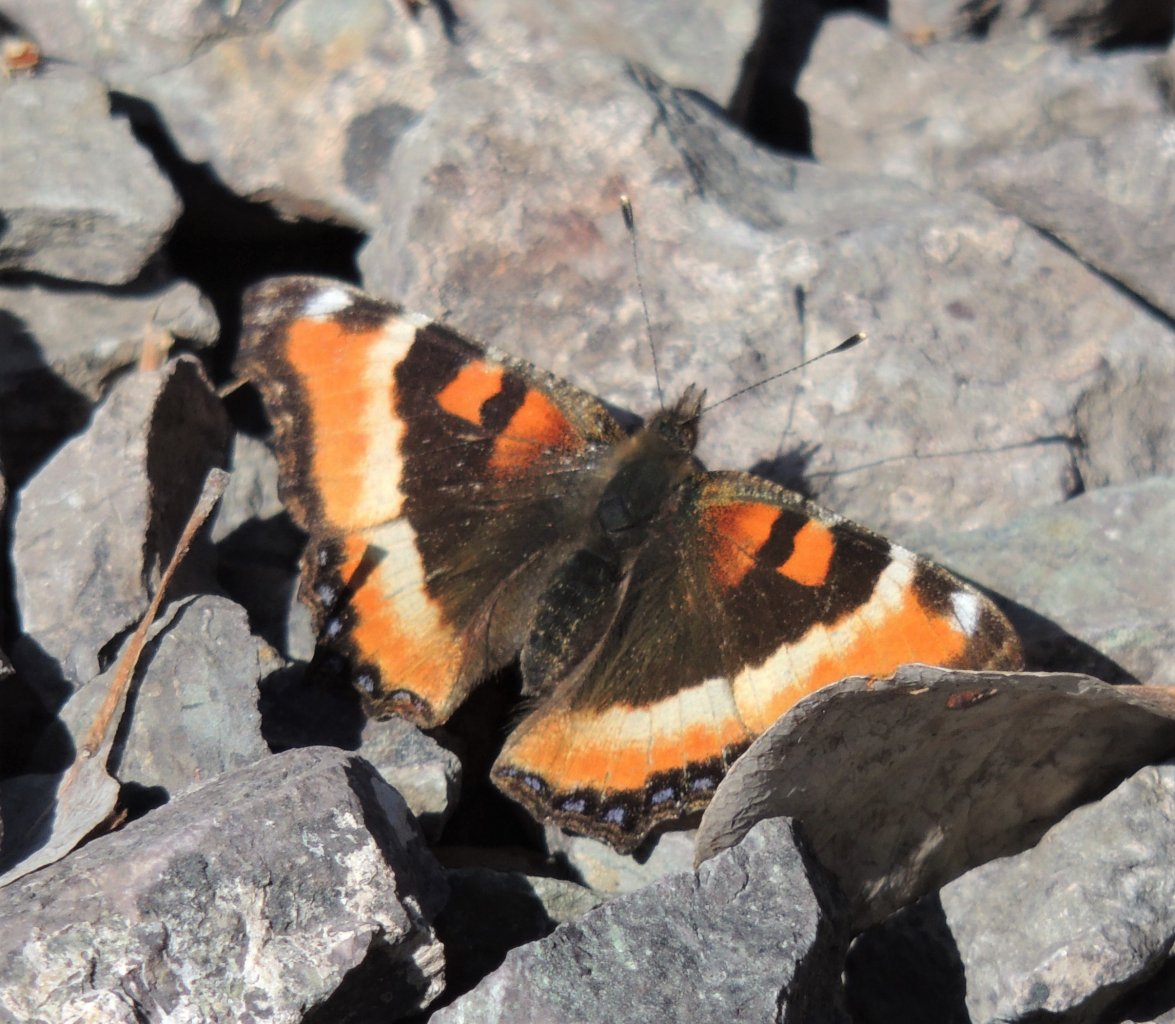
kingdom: Animalia
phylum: Arthropoda
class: Insecta
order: Lepidoptera
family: Nymphalidae
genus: Aglais
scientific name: Aglais milberti
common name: Milbert's Tortoiseshell
